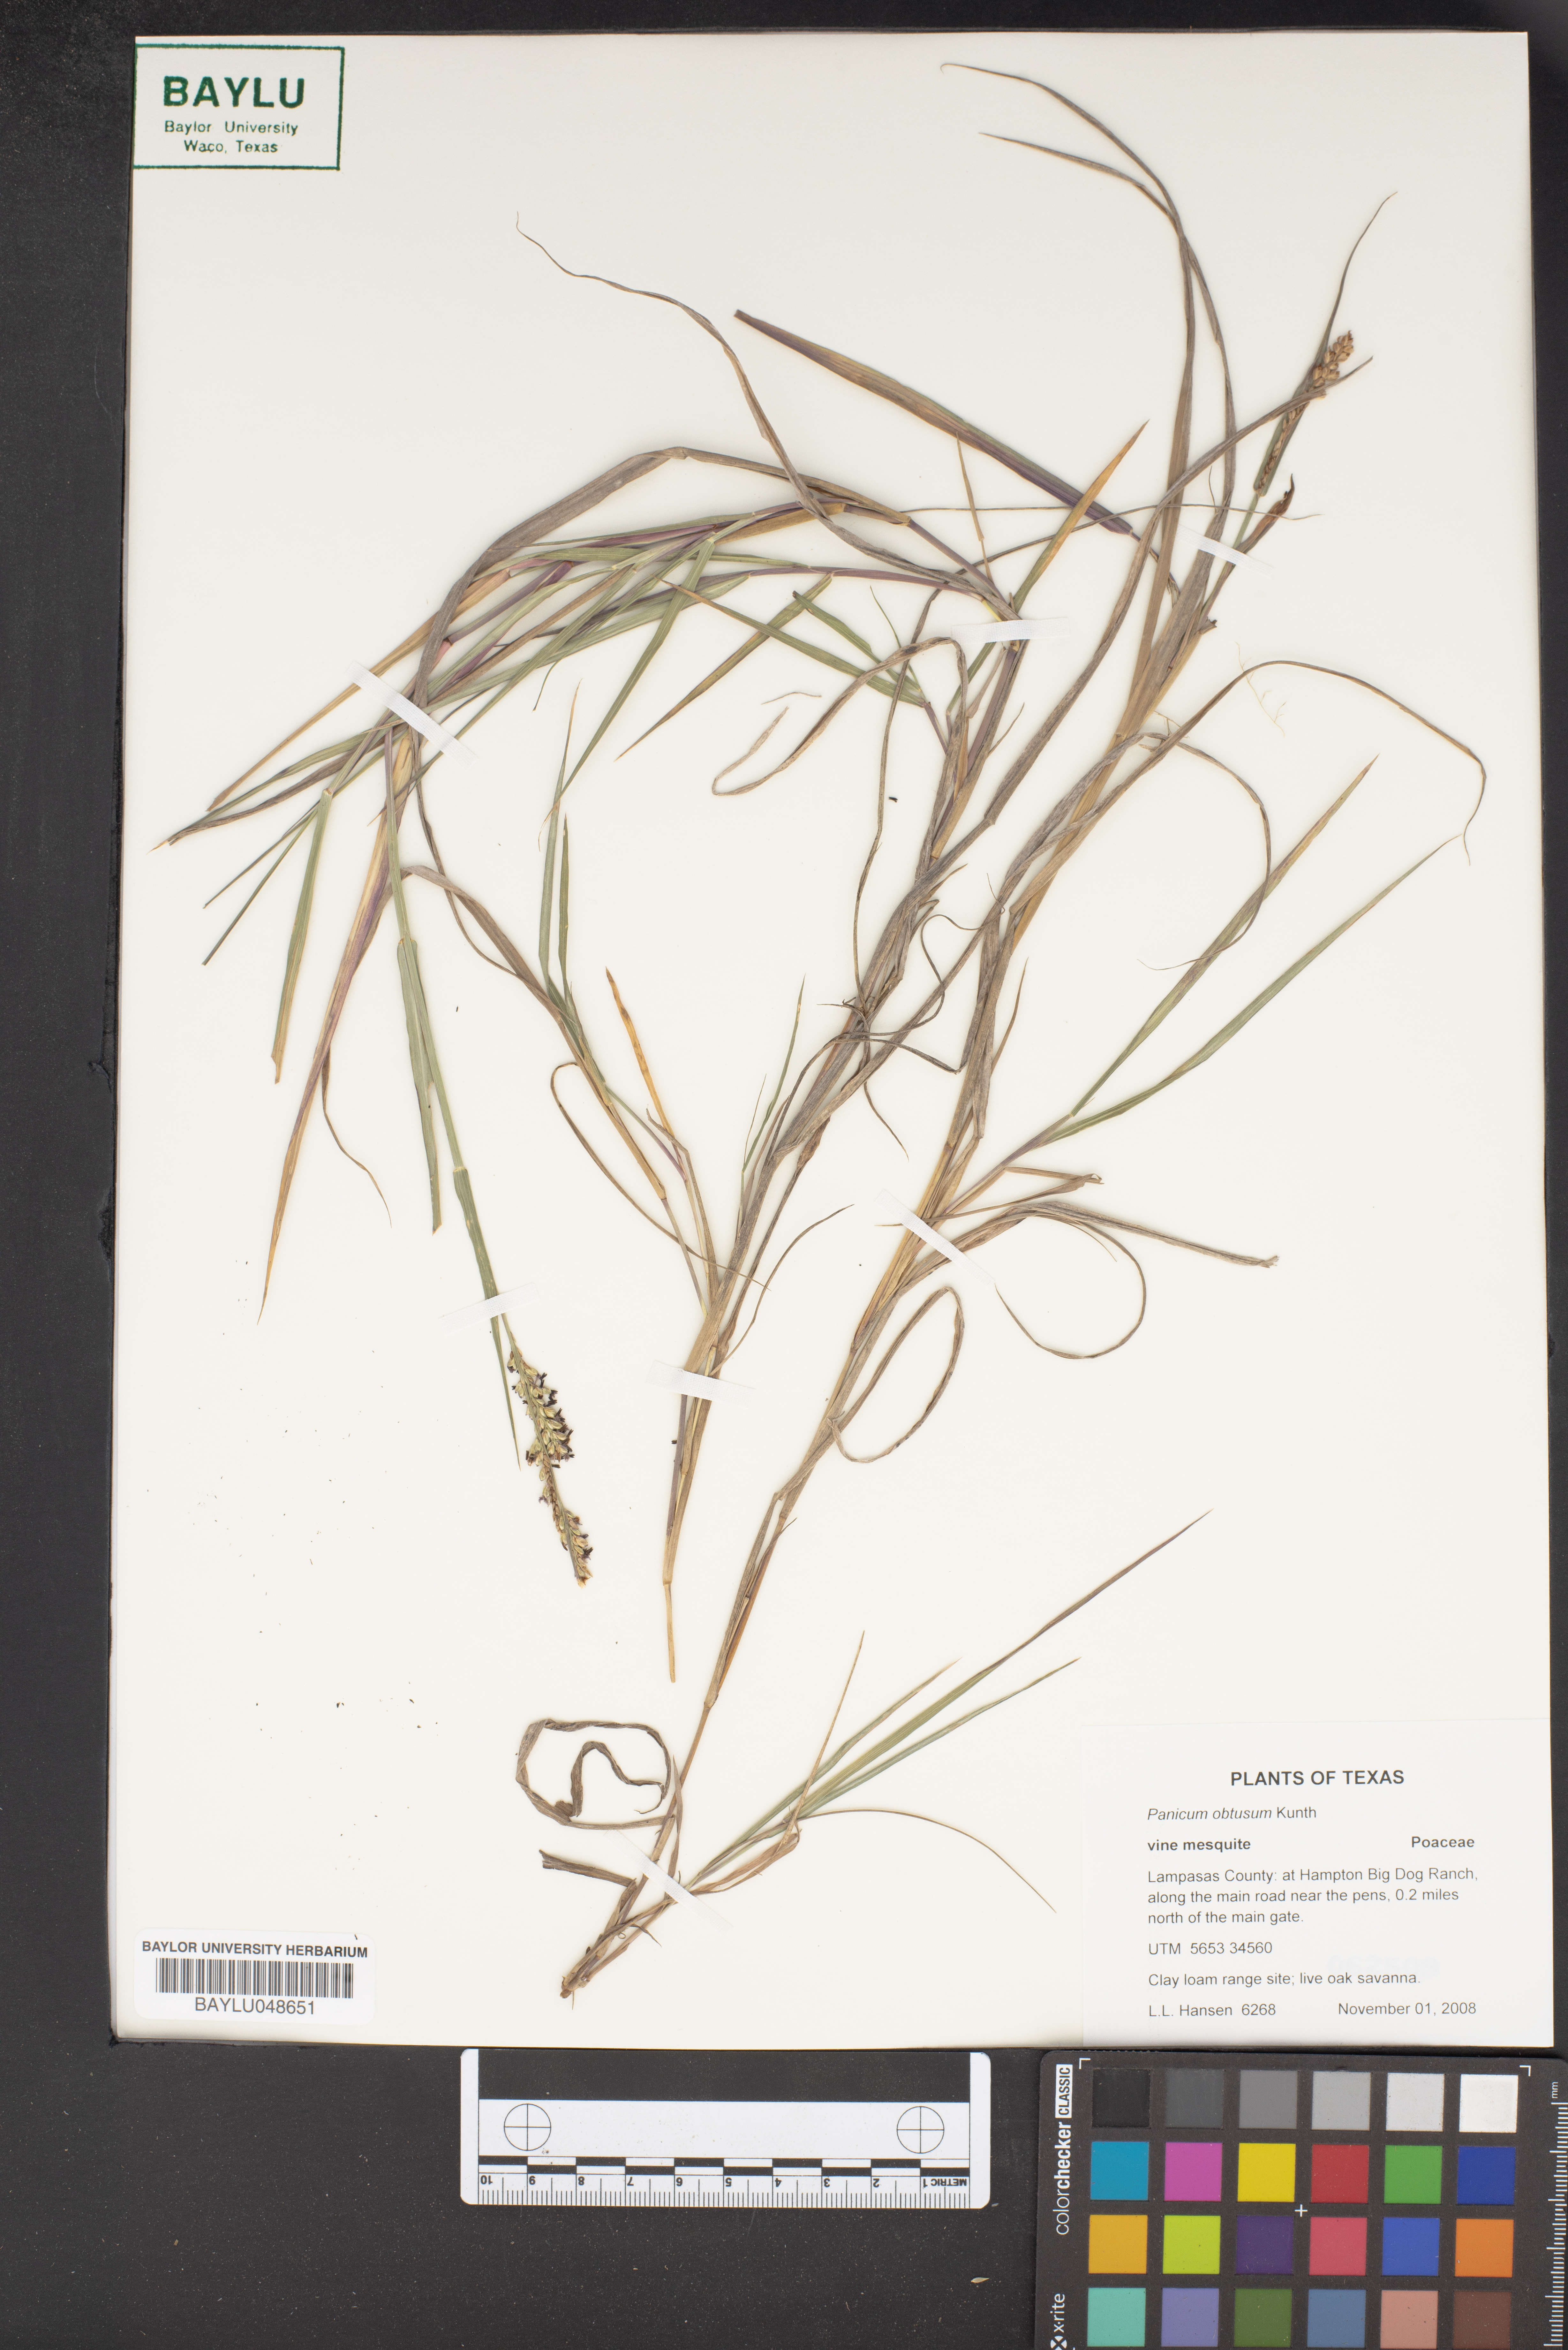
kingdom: Plantae
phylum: Tracheophyta
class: Liliopsida
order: Poales
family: Poaceae
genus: Hopia
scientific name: Hopia obtusa
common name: Vine-mesquite
